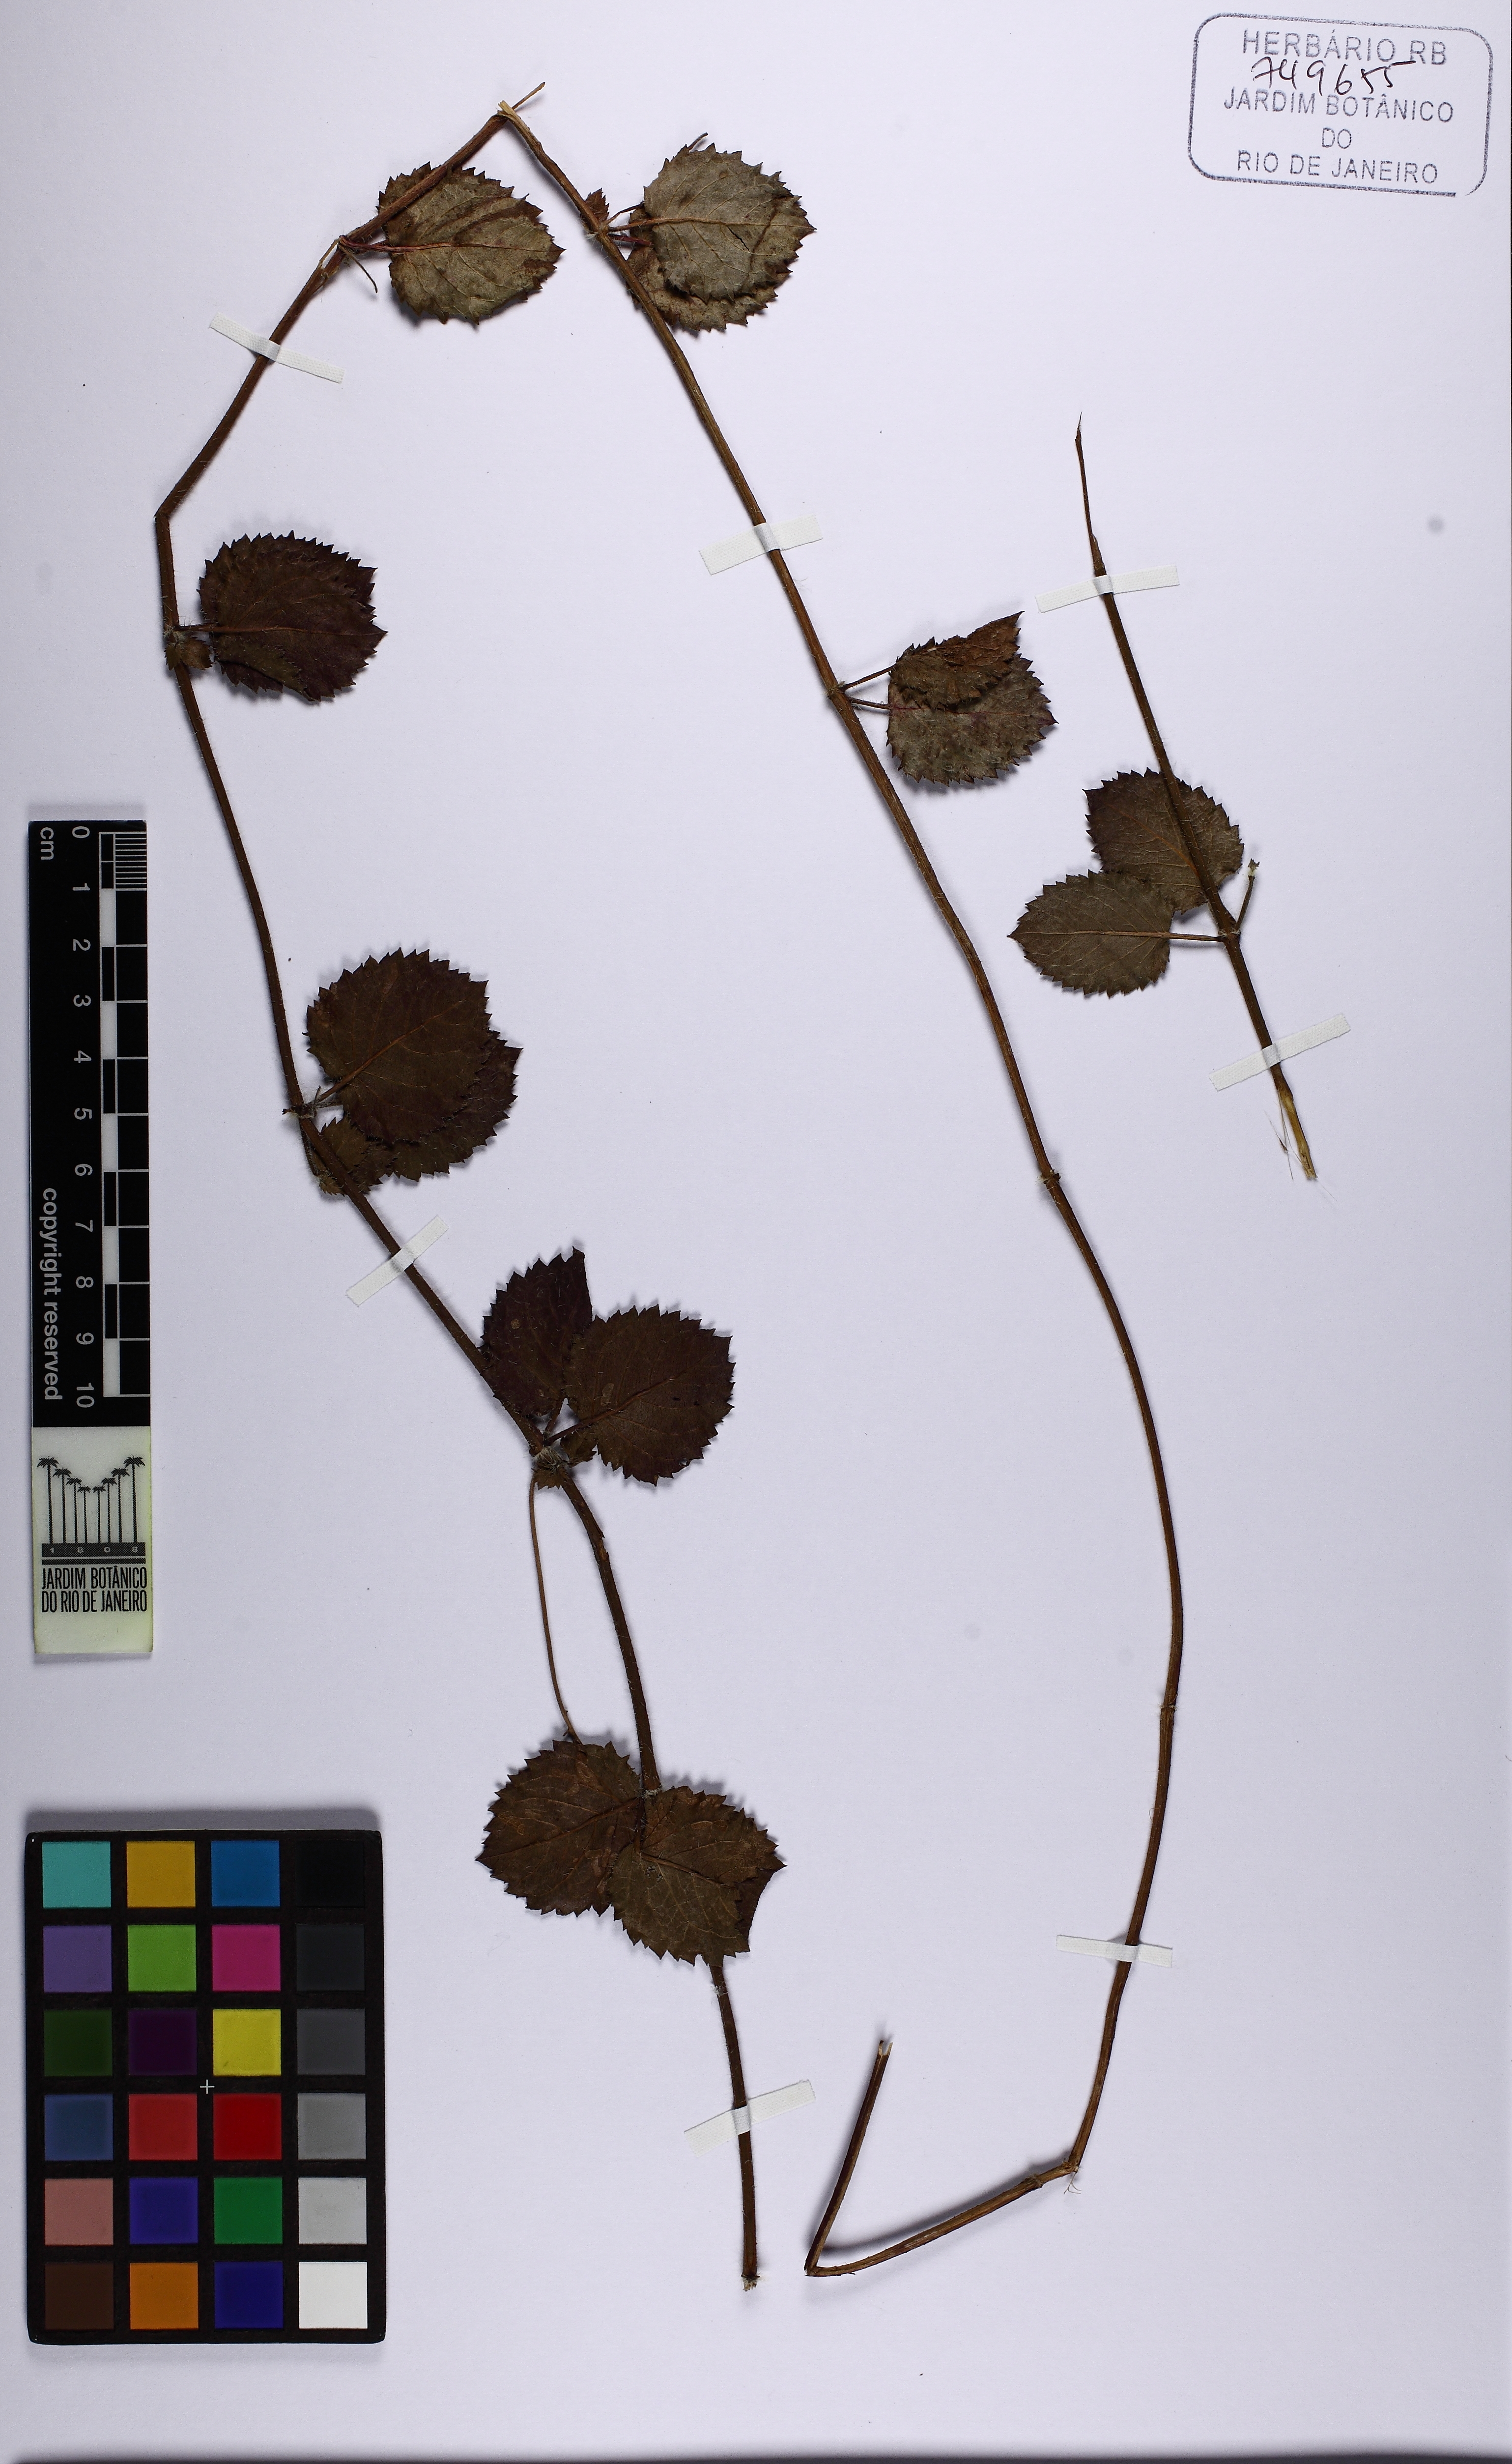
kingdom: Plantae
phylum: Tracheophyta
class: Magnoliopsida
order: Lamiales
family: Lamiaceae
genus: Rhaphiodon
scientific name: Rhaphiodon
